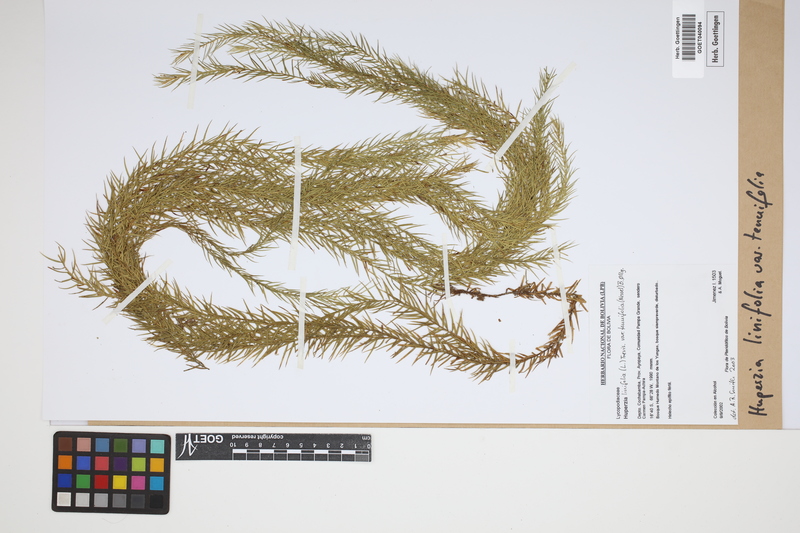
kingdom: Plantae
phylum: Tracheophyta
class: Lycopodiopsida
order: Lycopodiales
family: Lycopodiaceae
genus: Phlegmariurus
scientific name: Phlegmariurus linifolius
